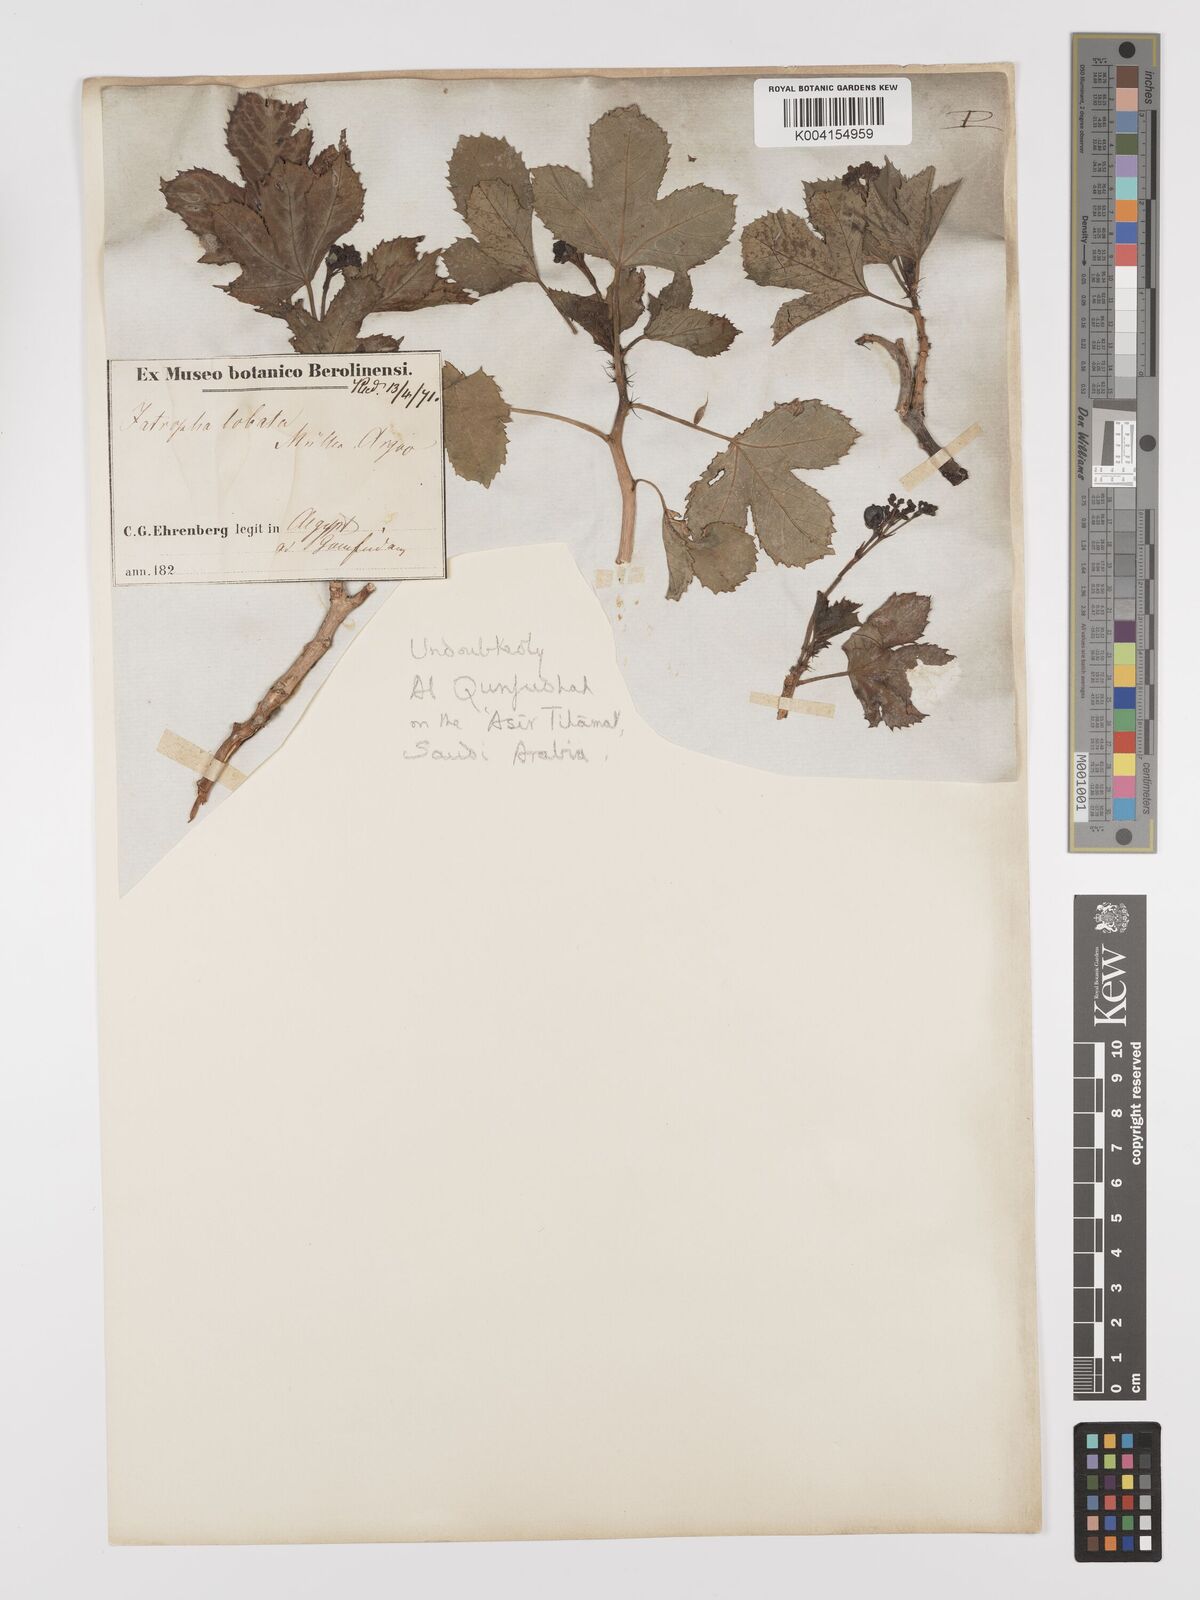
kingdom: Plantae
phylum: Tracheophyta
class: Magnoliopsida
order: Malpighiales
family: Euphorbiaceae
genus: Jatropha
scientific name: Jatropha glauca
